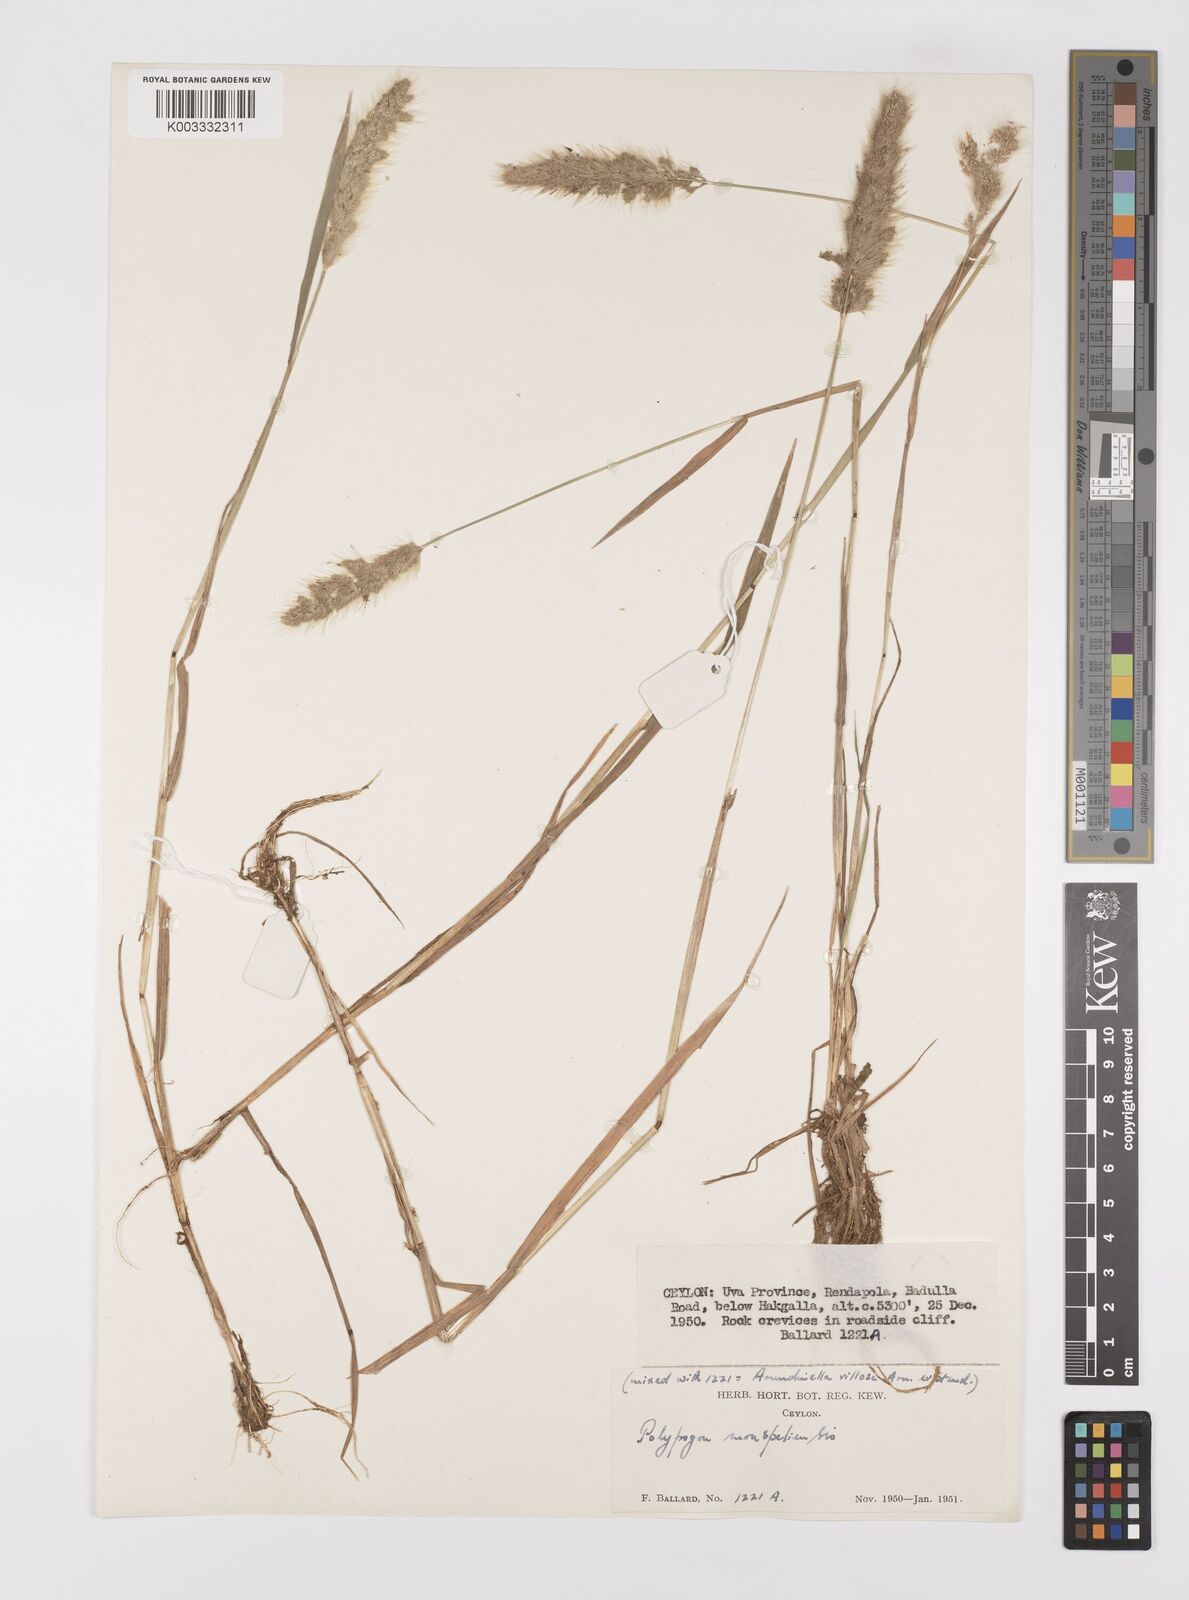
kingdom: Plantae
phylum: Tracheophyta
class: Liliopsida
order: Poales
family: Poaceae
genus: Polypogon
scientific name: Polypogon monspeliensis
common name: Annual rabbitsfoot grass
